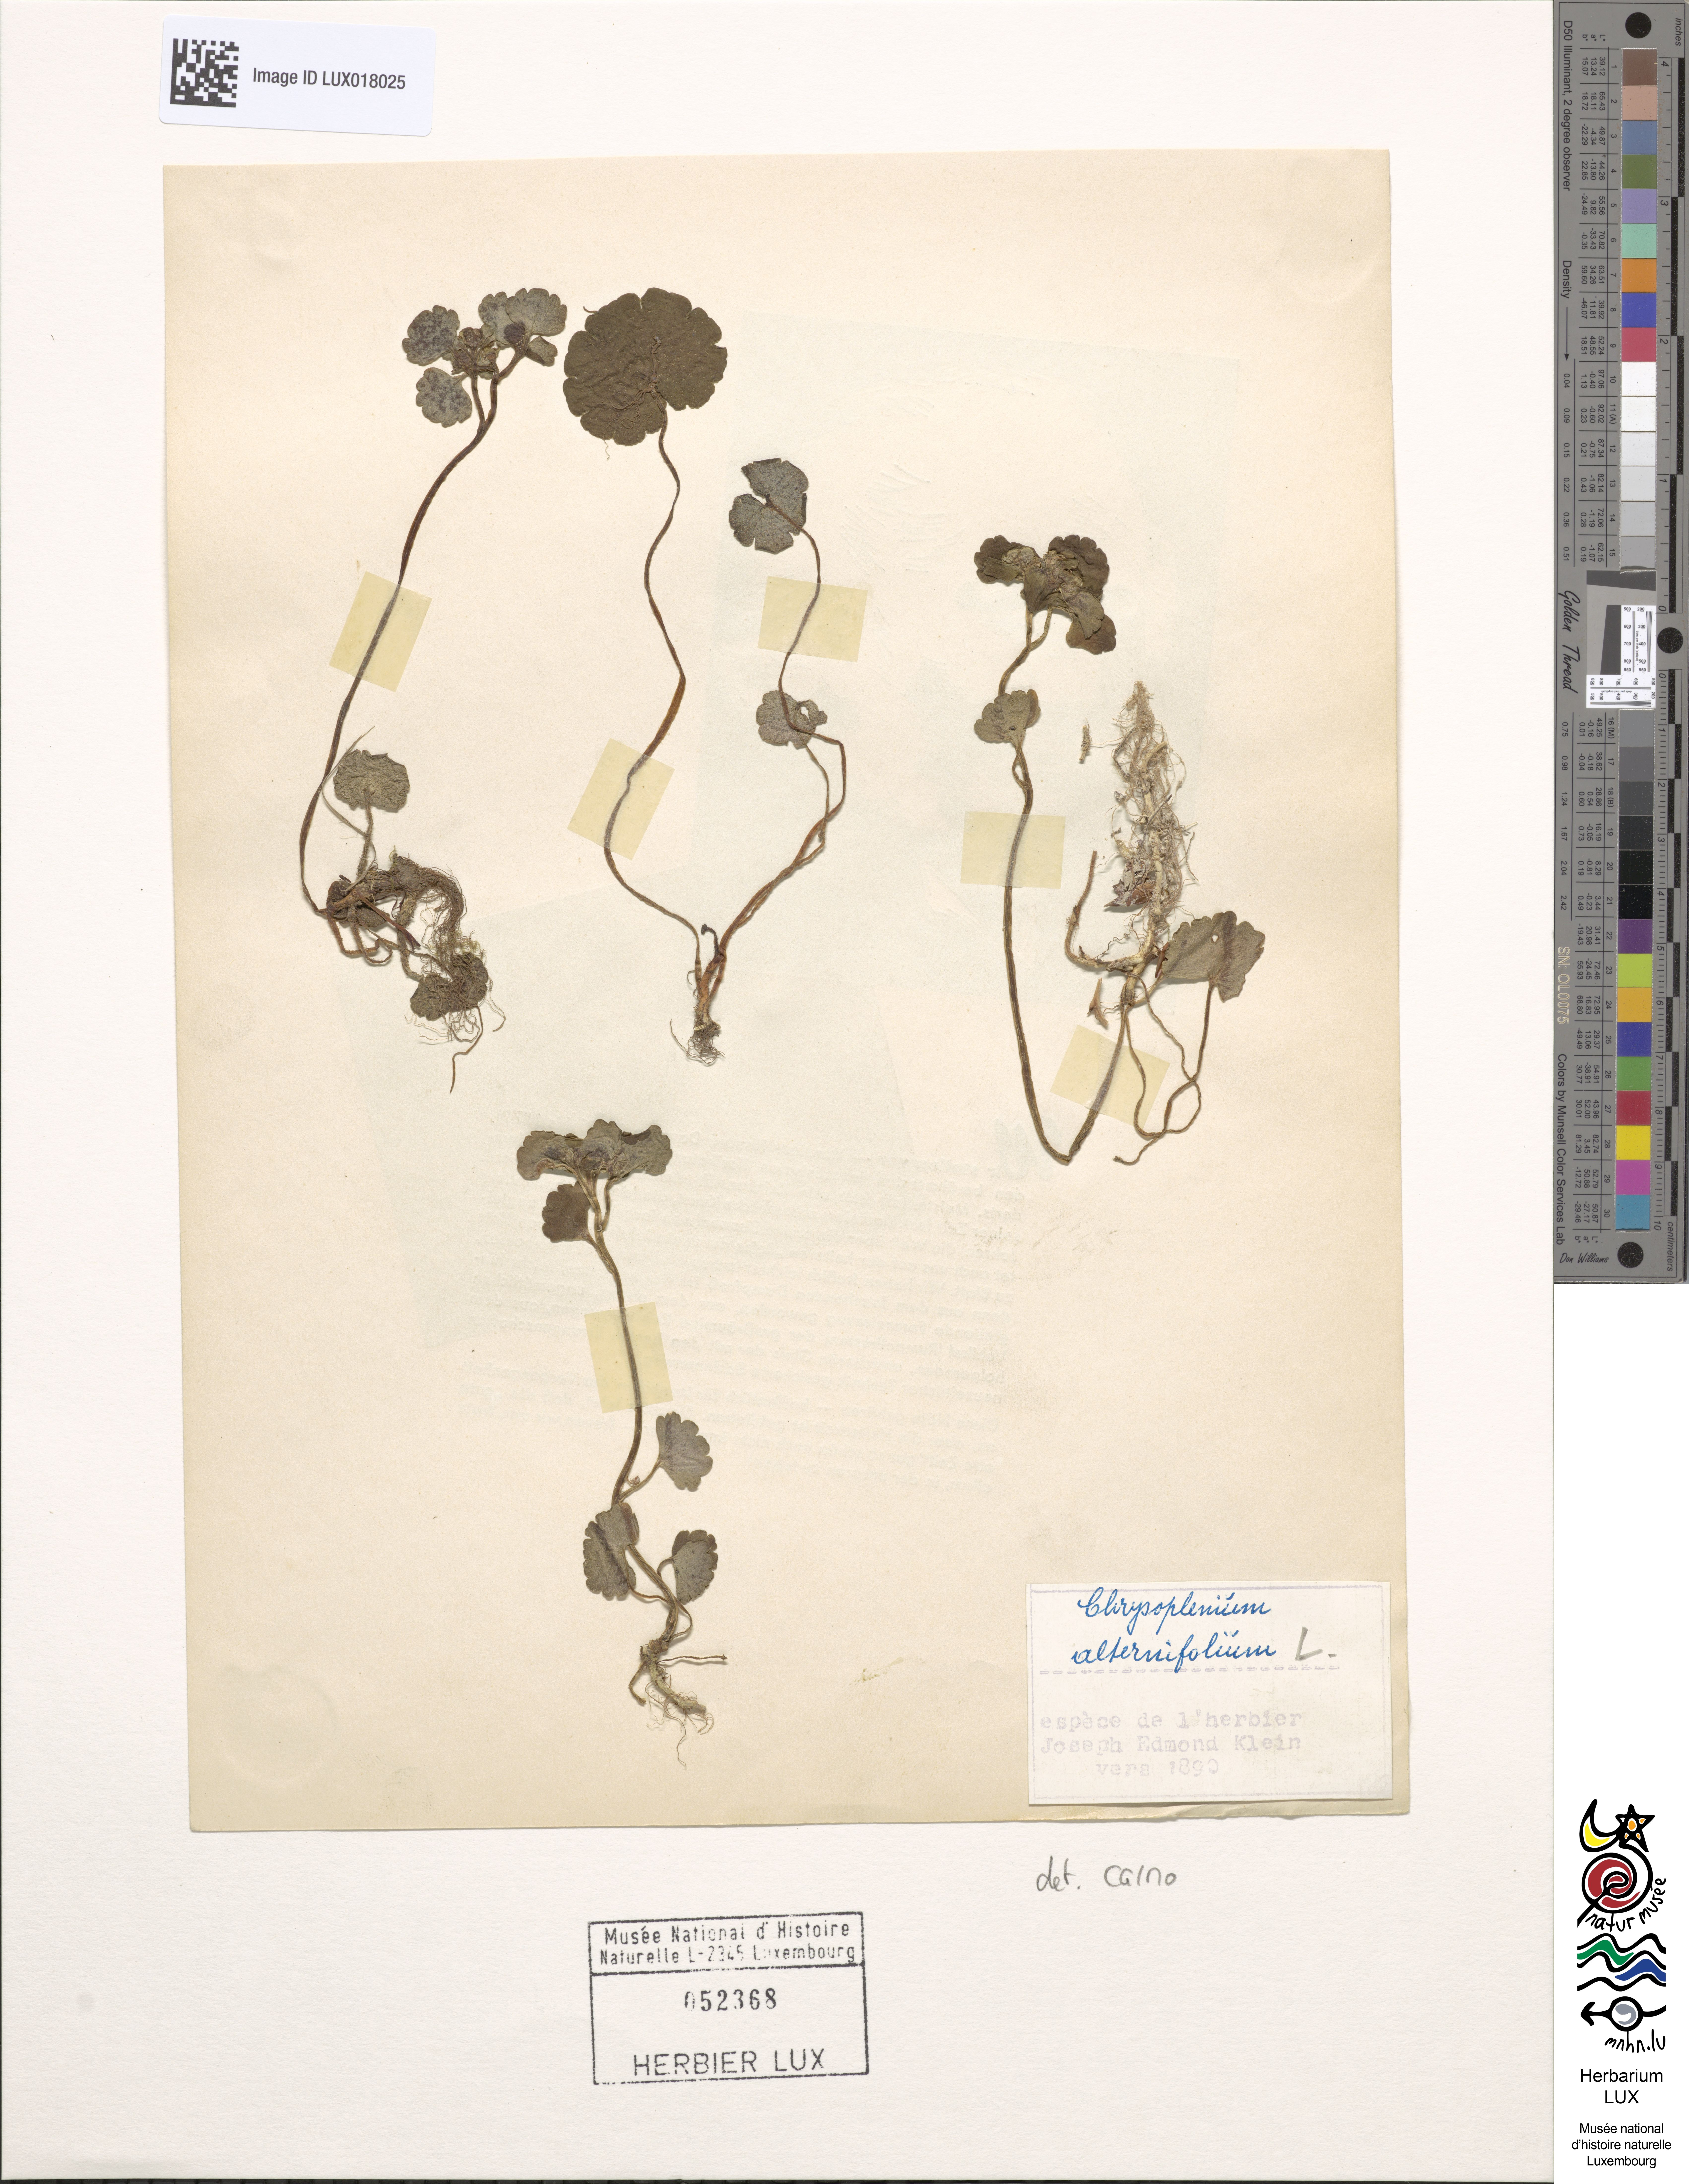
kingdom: Plantae
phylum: Tracheophyta
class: Magnoliopsida
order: Saxifragales
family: Saxifragaceae
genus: Chrysosplenium
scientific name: Chrysosplenium alternifolium
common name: Alternate-leaved golden-saxifrage
